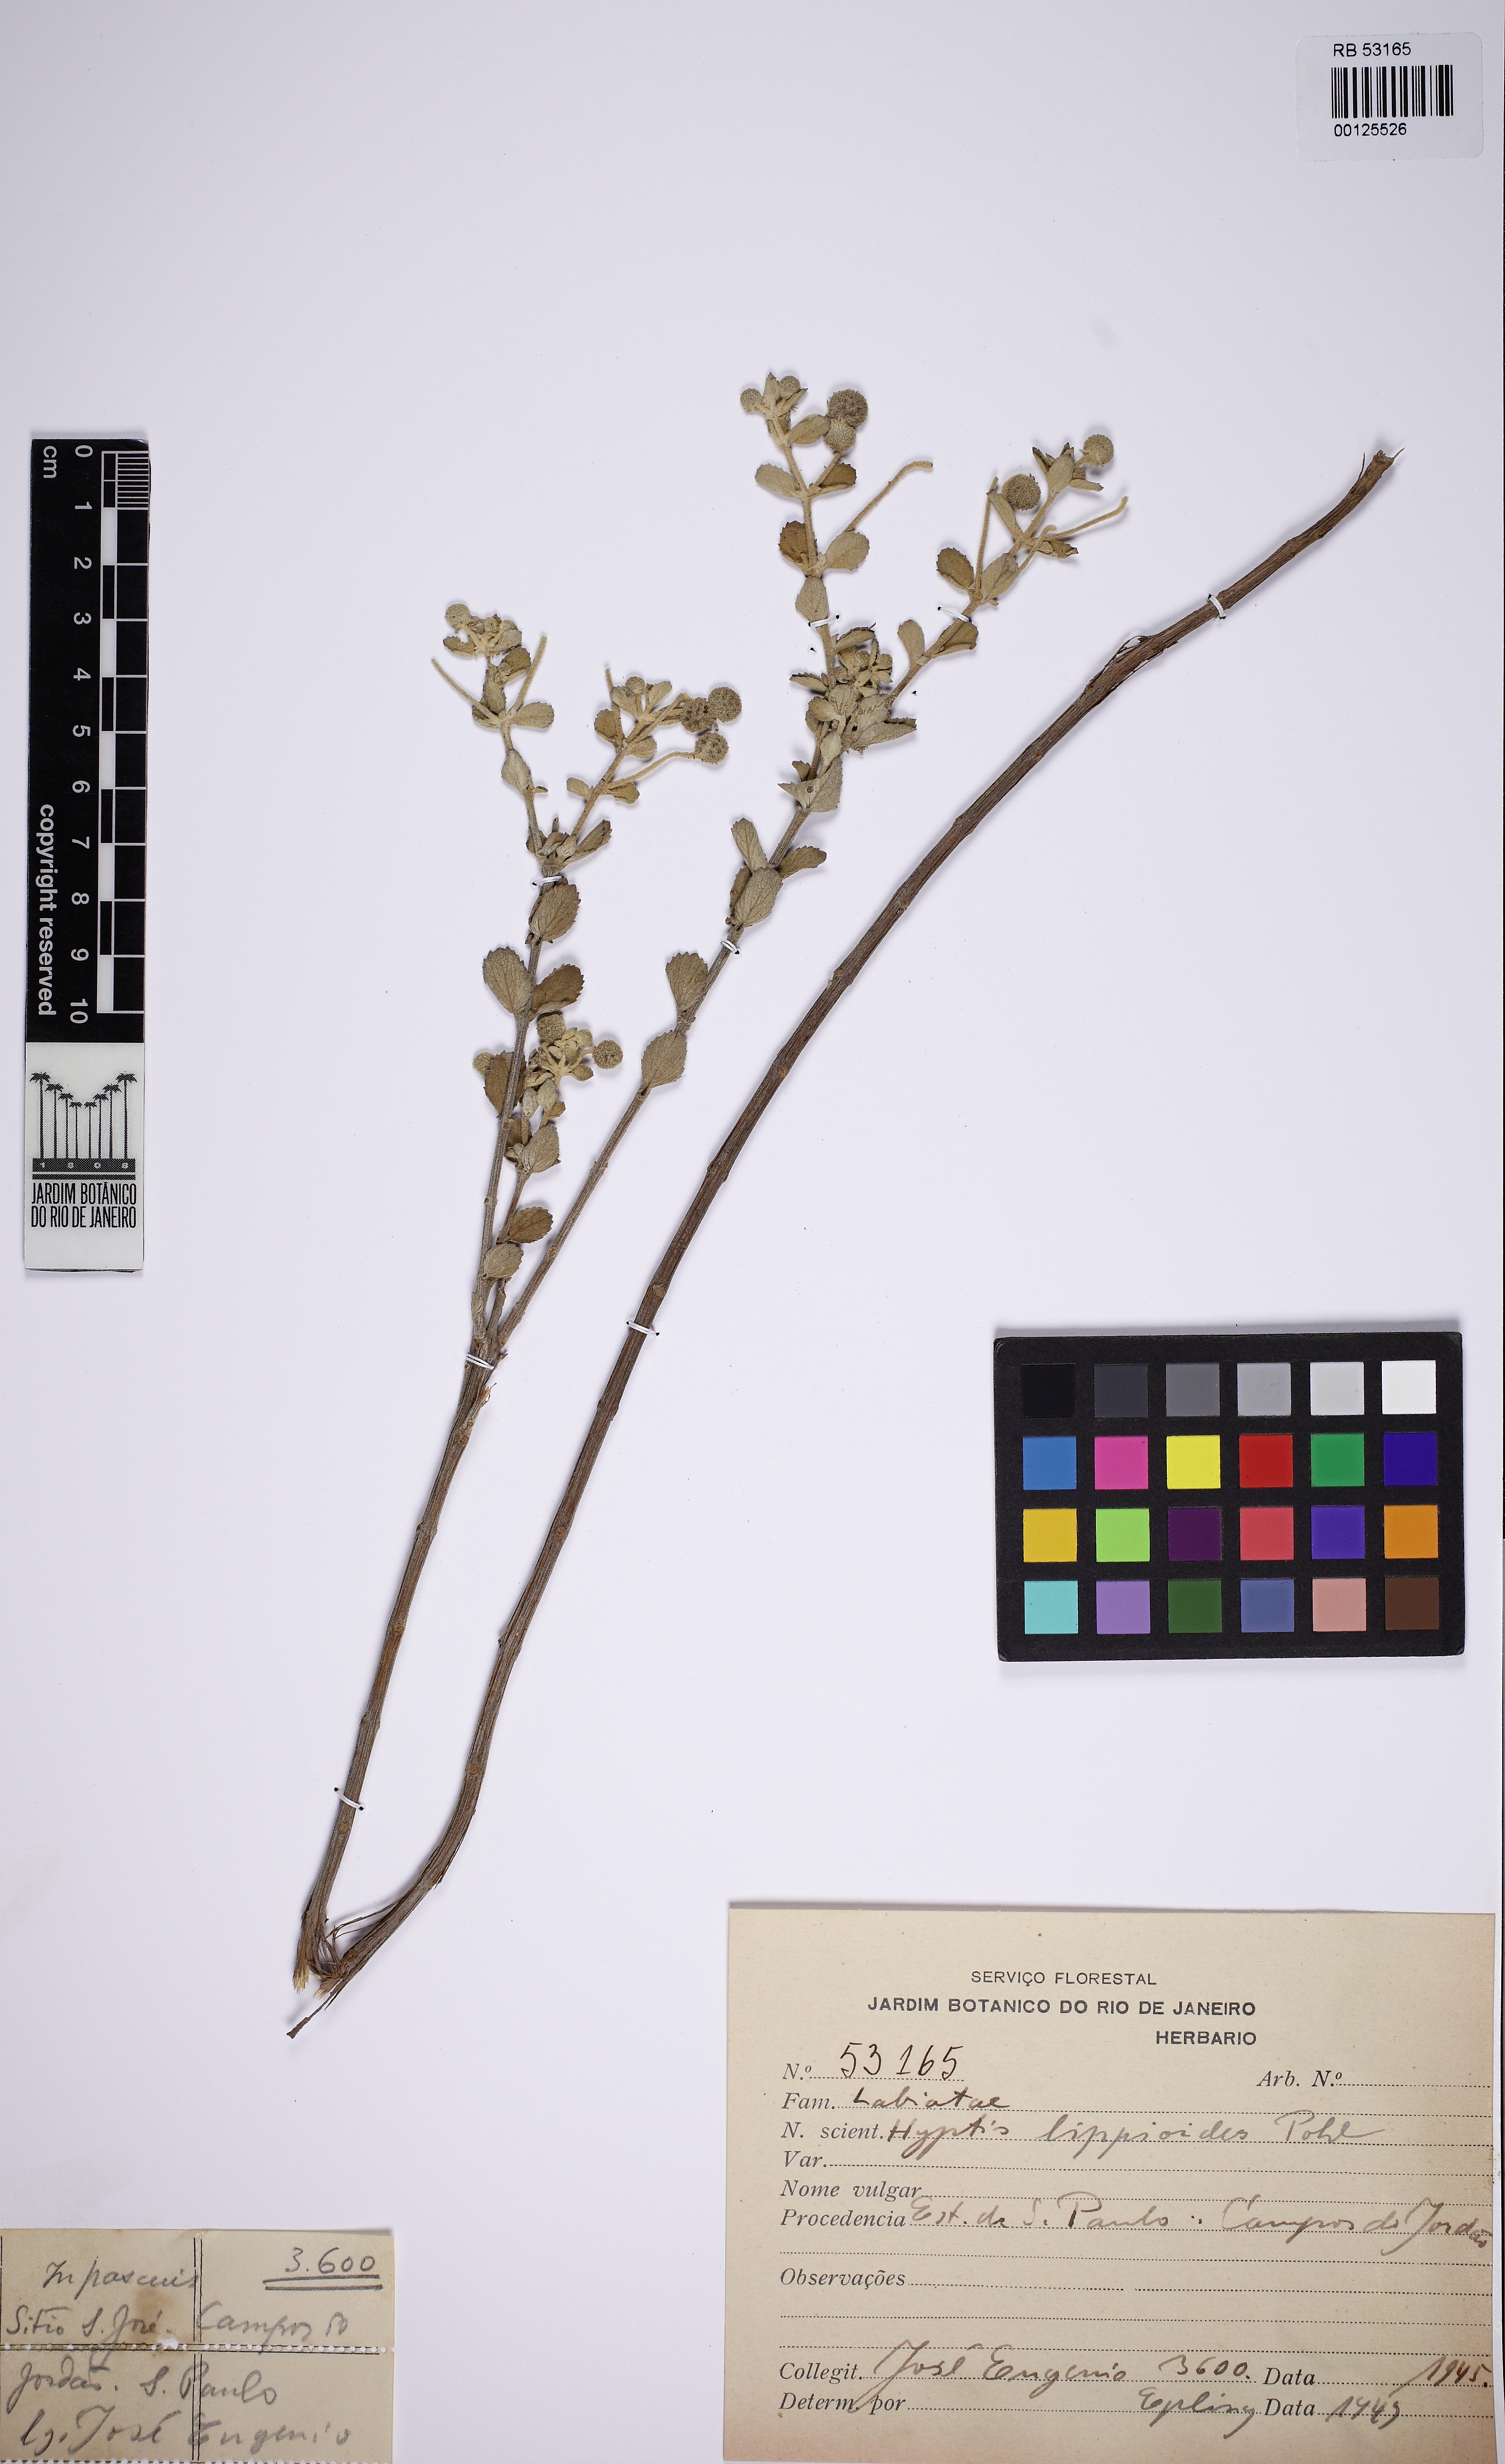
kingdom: Plantae
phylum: Tracheophyta
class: Magnoliopsida
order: Lamiales
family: Lamiaceae
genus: Cyanocephalus
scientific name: Cyanocephalus lippioides
